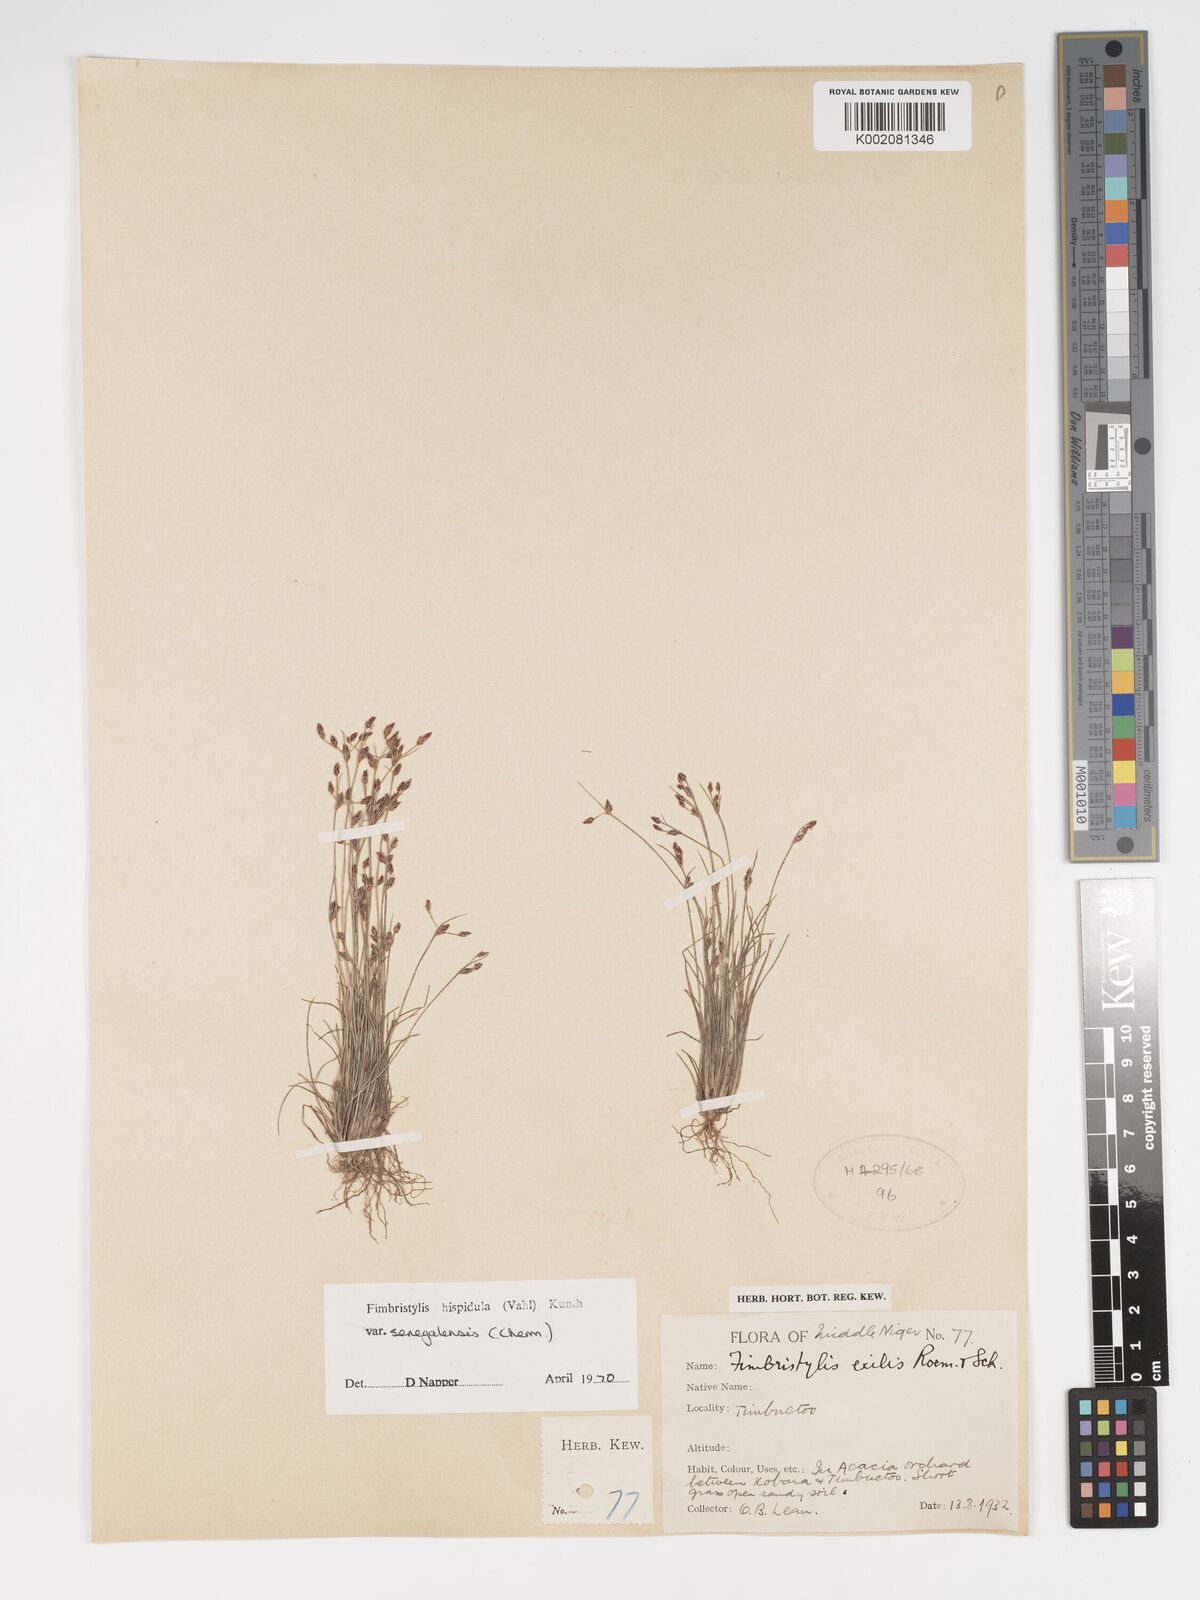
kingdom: Plantae
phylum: Tracheophyta
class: Liliopsida
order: Poales
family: Cyperaceae
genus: Bulbostylis
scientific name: Bulbostylis hispidula
